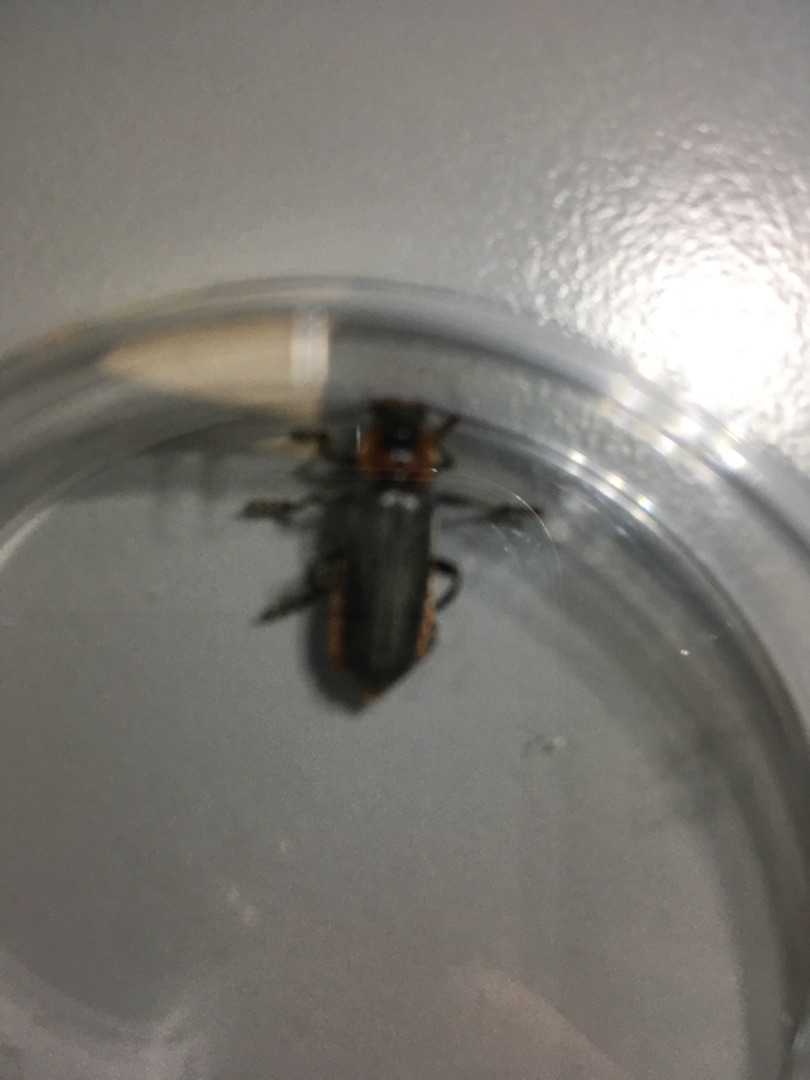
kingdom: Animalia
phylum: Arthropoda
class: Insecta
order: Coleoptera
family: Cantharidae
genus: Cantharis
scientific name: Cantharis
